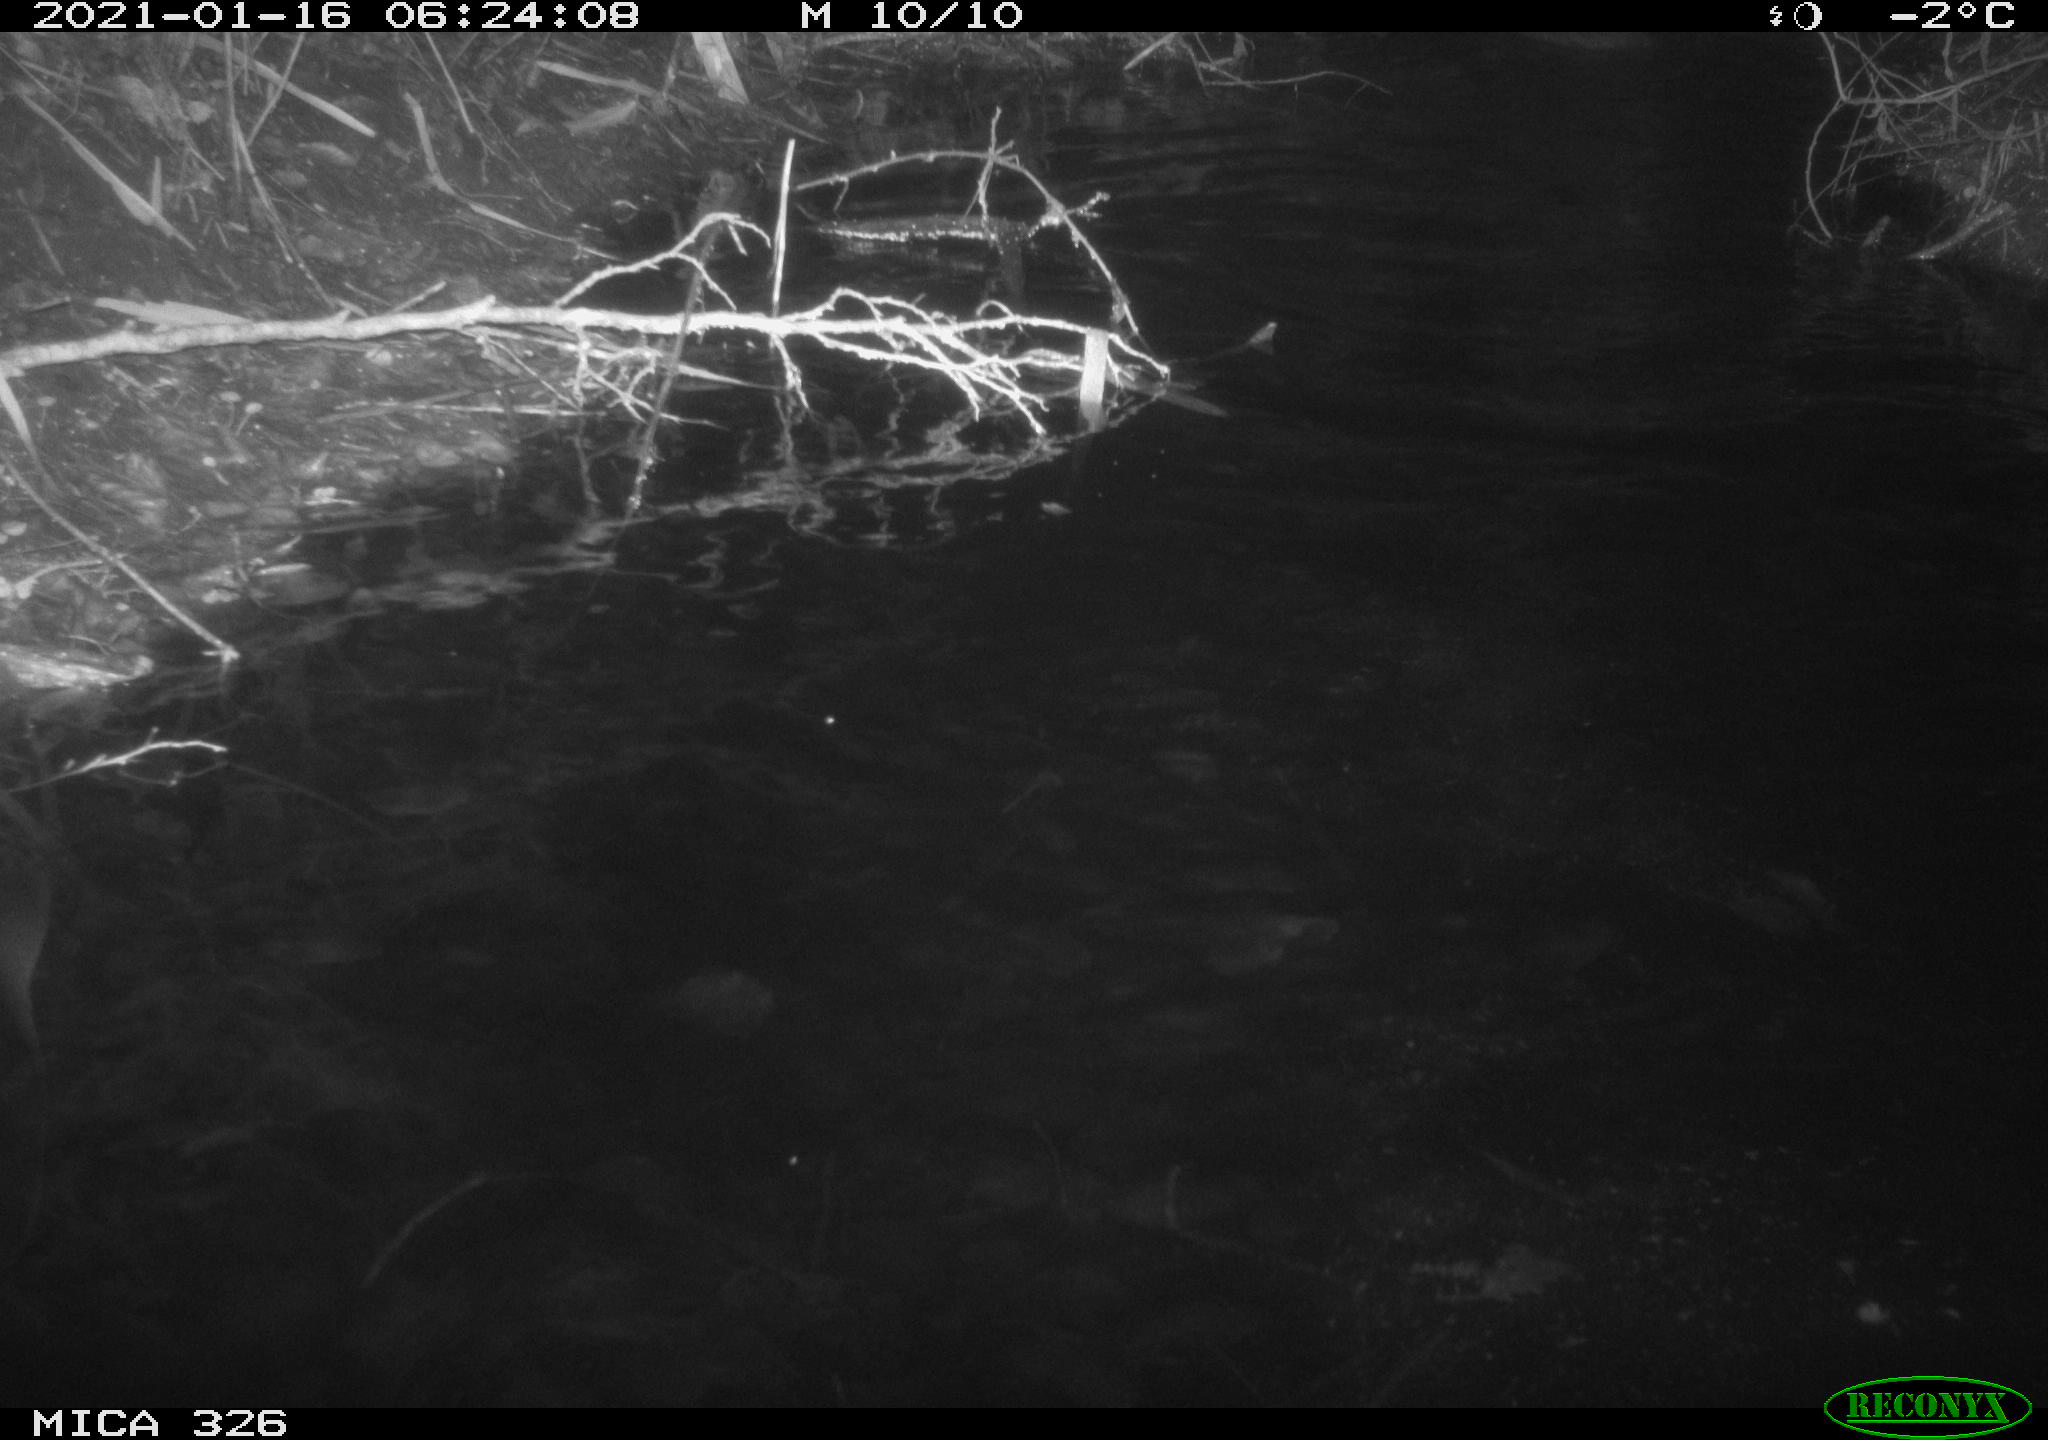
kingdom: Animalia
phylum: Chordata
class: Mammalia
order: Rodentia
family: Myocastoridae
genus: Myocastor
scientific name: Myocastor coypus
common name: Coypu
